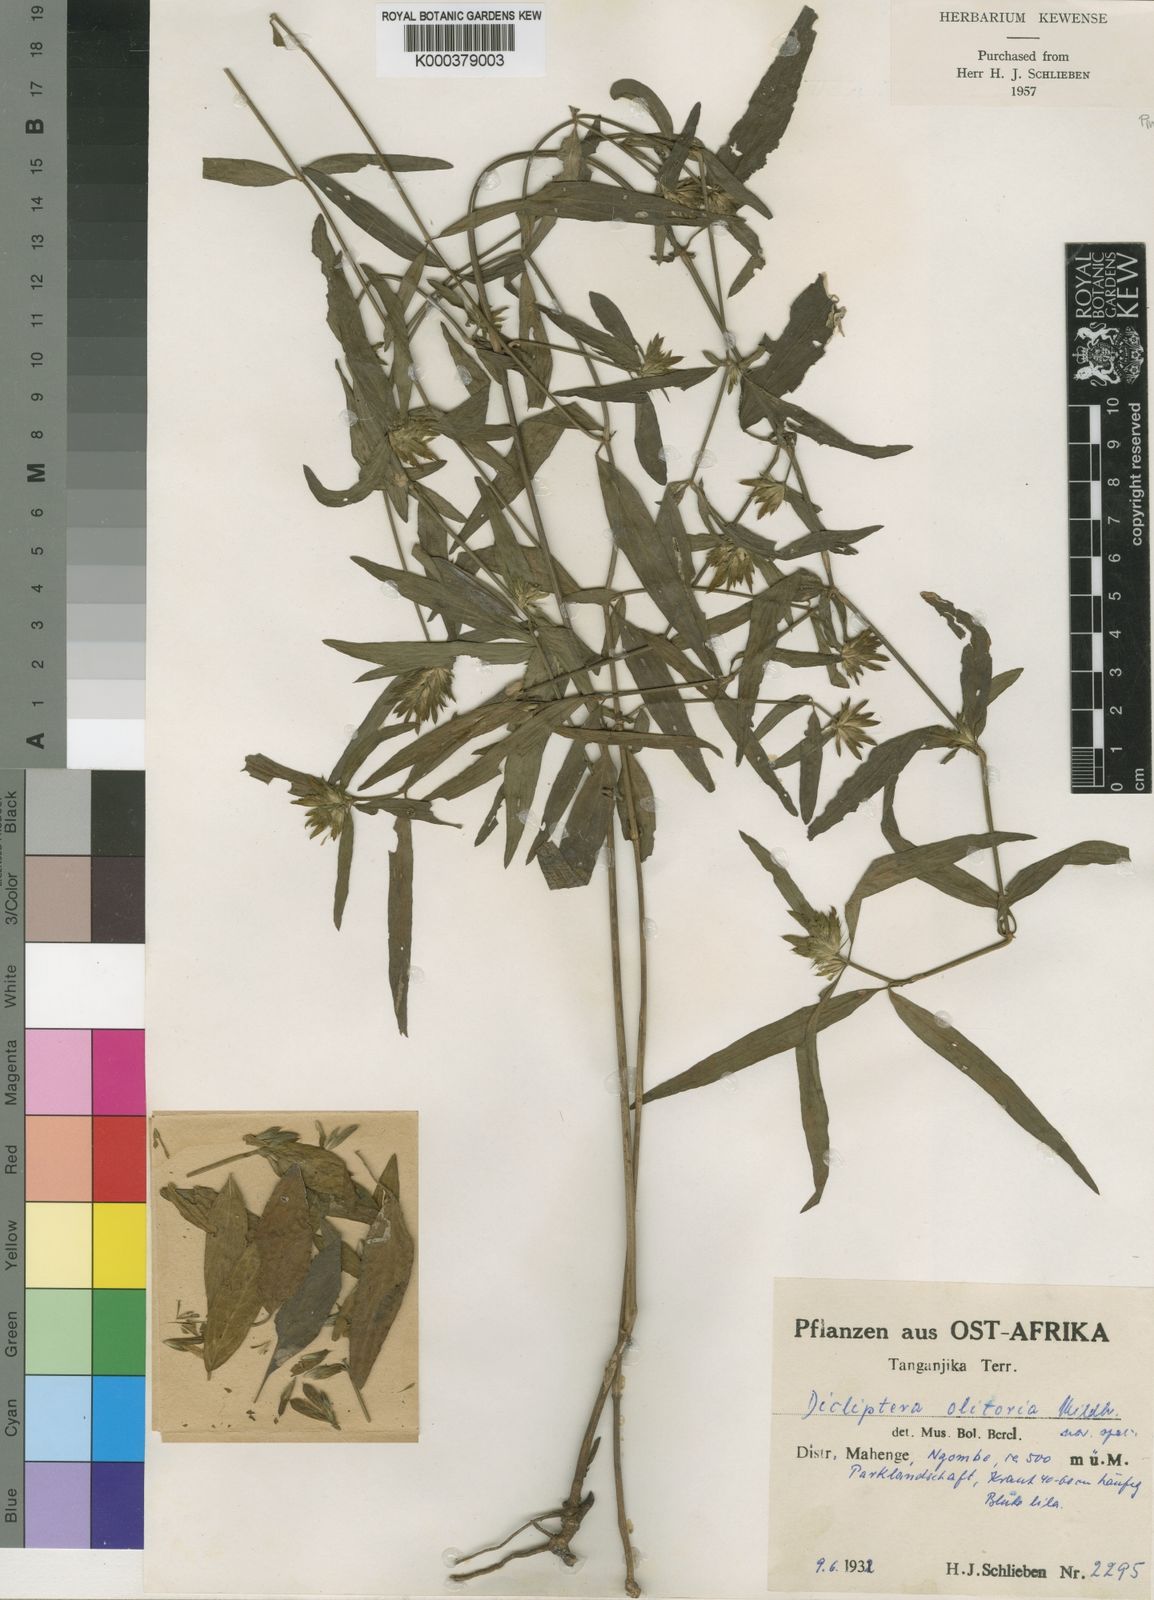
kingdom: Plantae
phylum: Tracheophyta
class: Magnoliopsida
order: Lamiales
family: Acanthaceae
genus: Dicliptera
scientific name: Dicliptera carvalhoi
